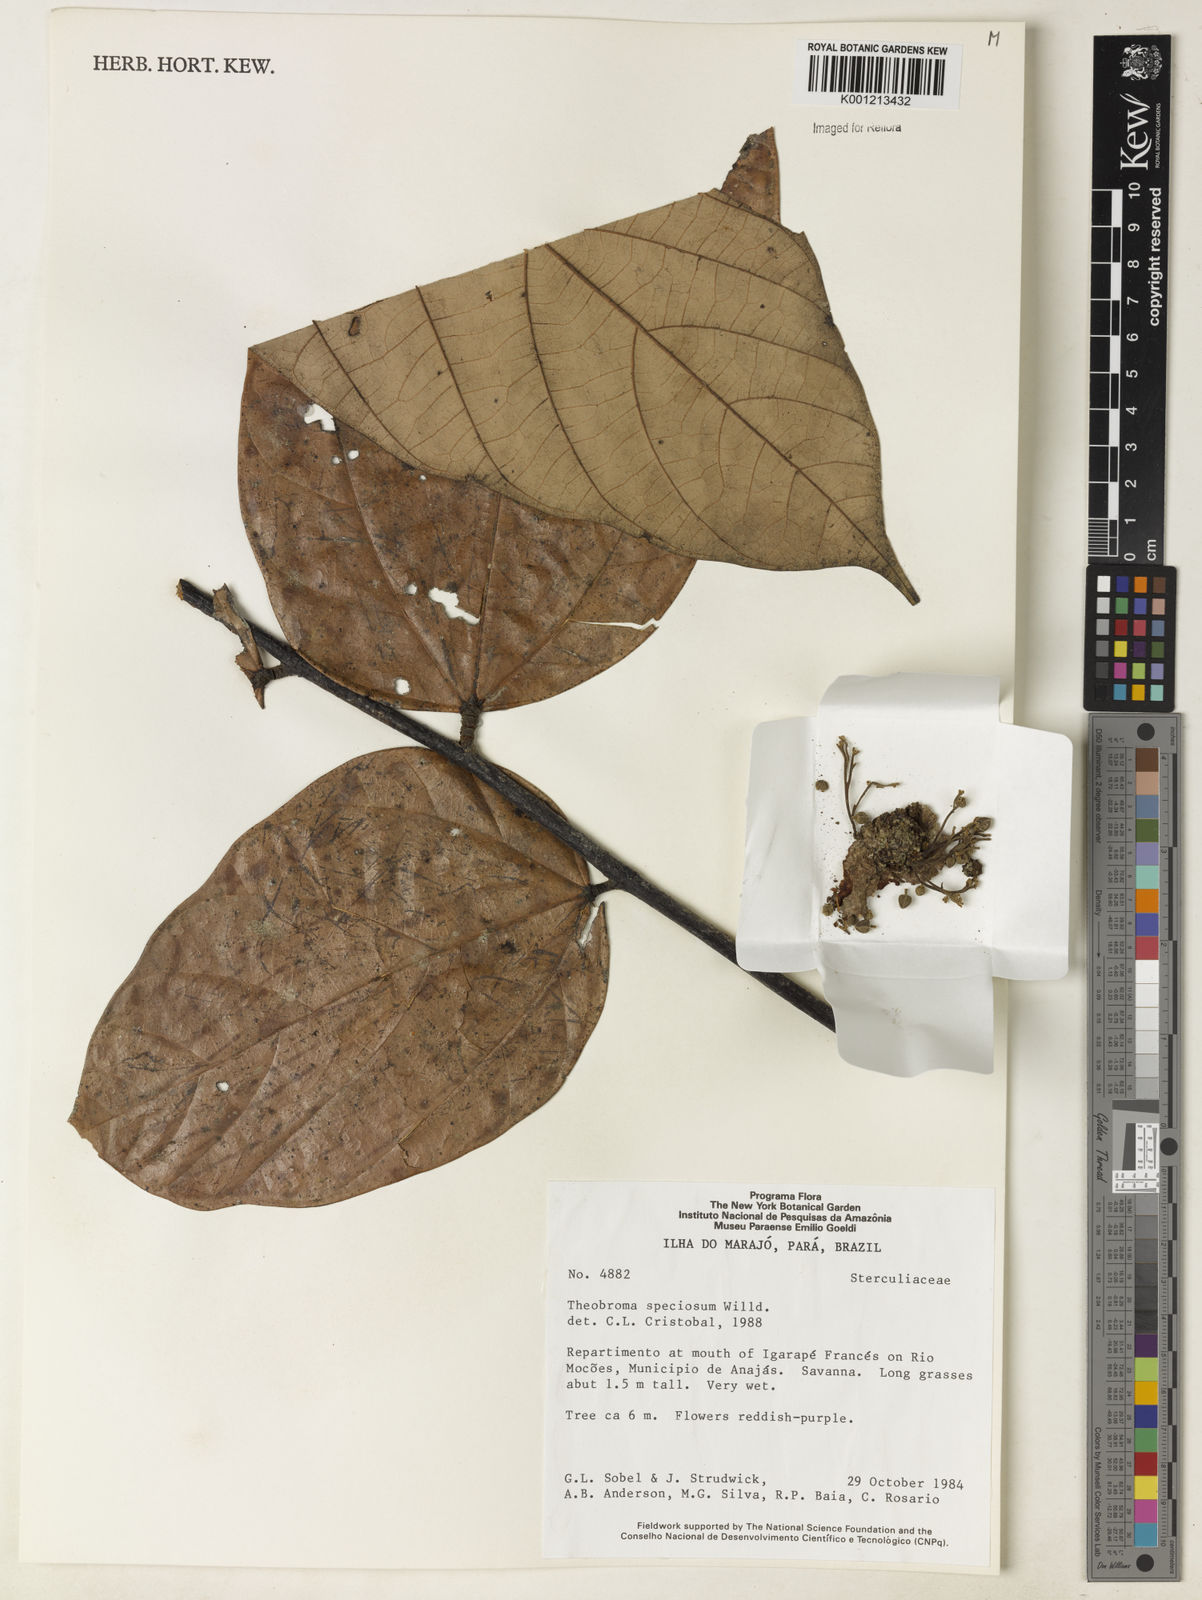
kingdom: Plantae
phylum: Tracheophyta
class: Magnoliopsida
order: Malvales
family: Malvaceae
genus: Theobroma
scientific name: Theobroma speciosum
